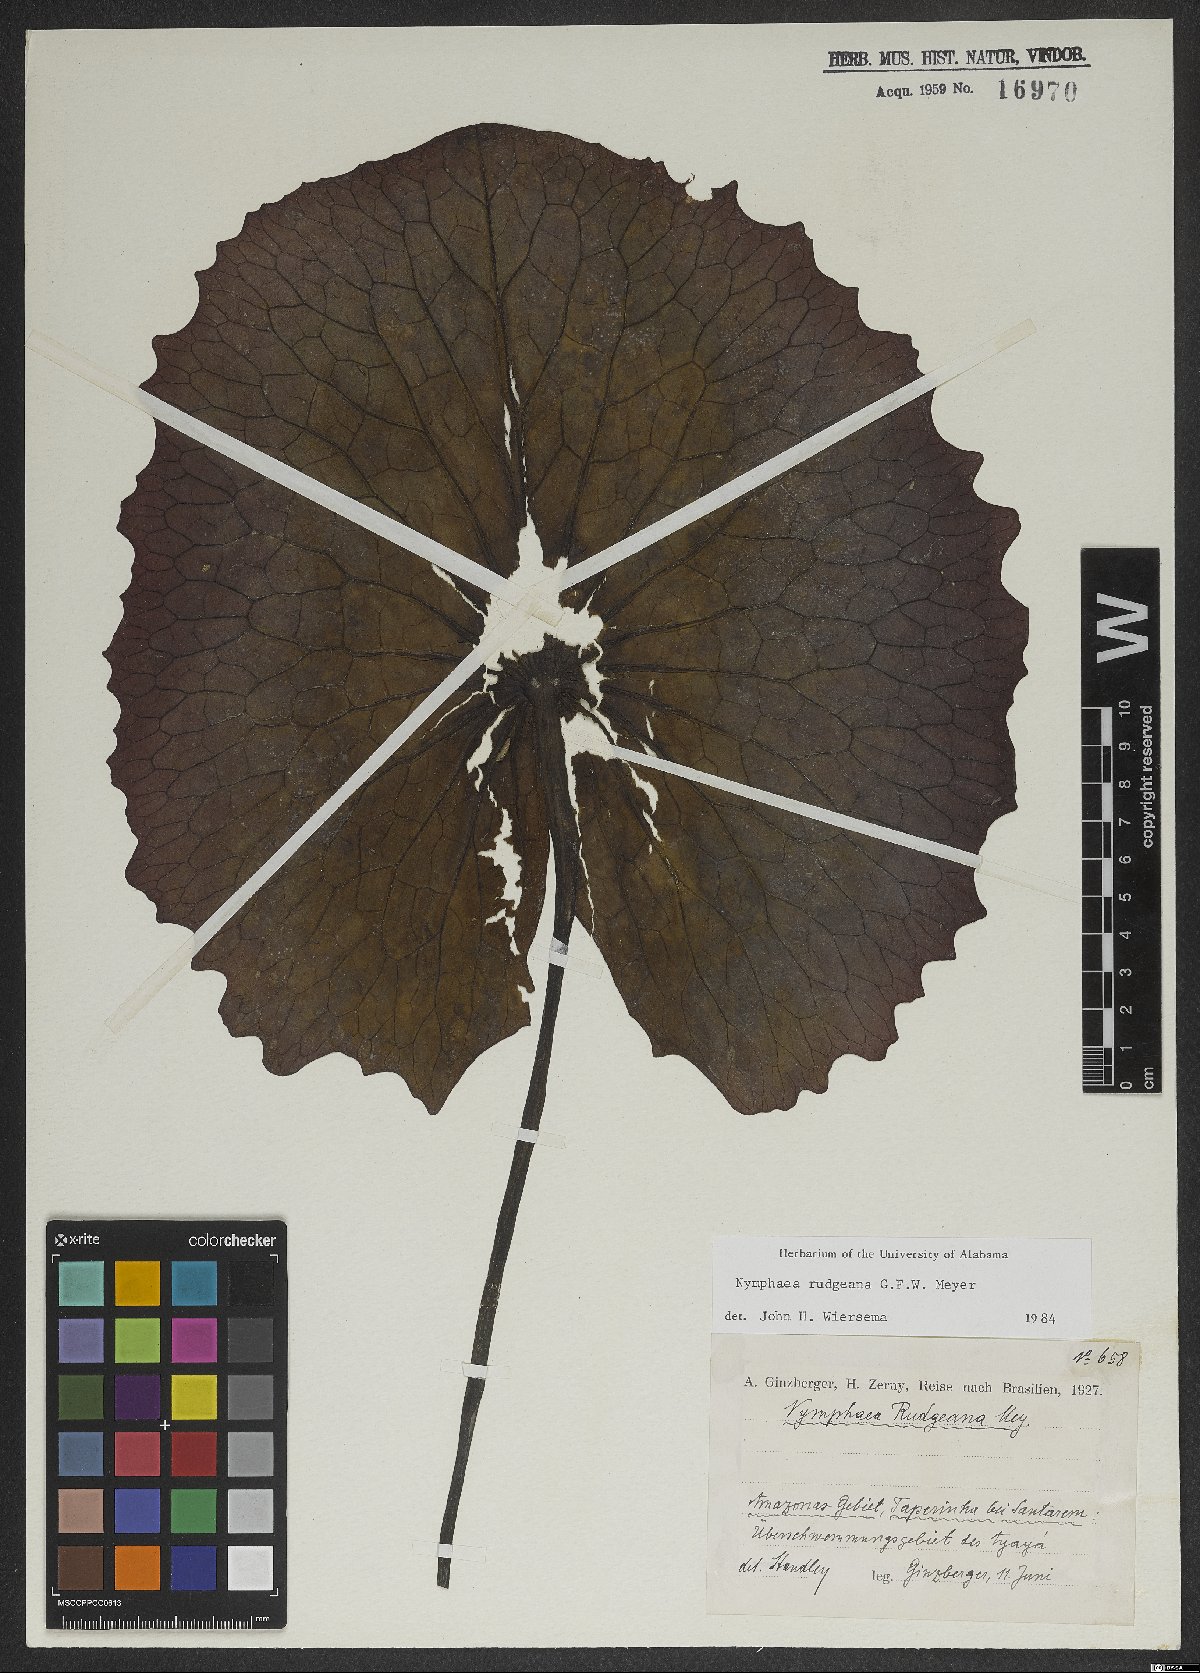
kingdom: Plantae
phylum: Tracheophyta
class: Magnoliopsida
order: Nymphaeales
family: Nymphaeaceae
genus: Nymphaea
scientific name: Nymphaea rudgeana
